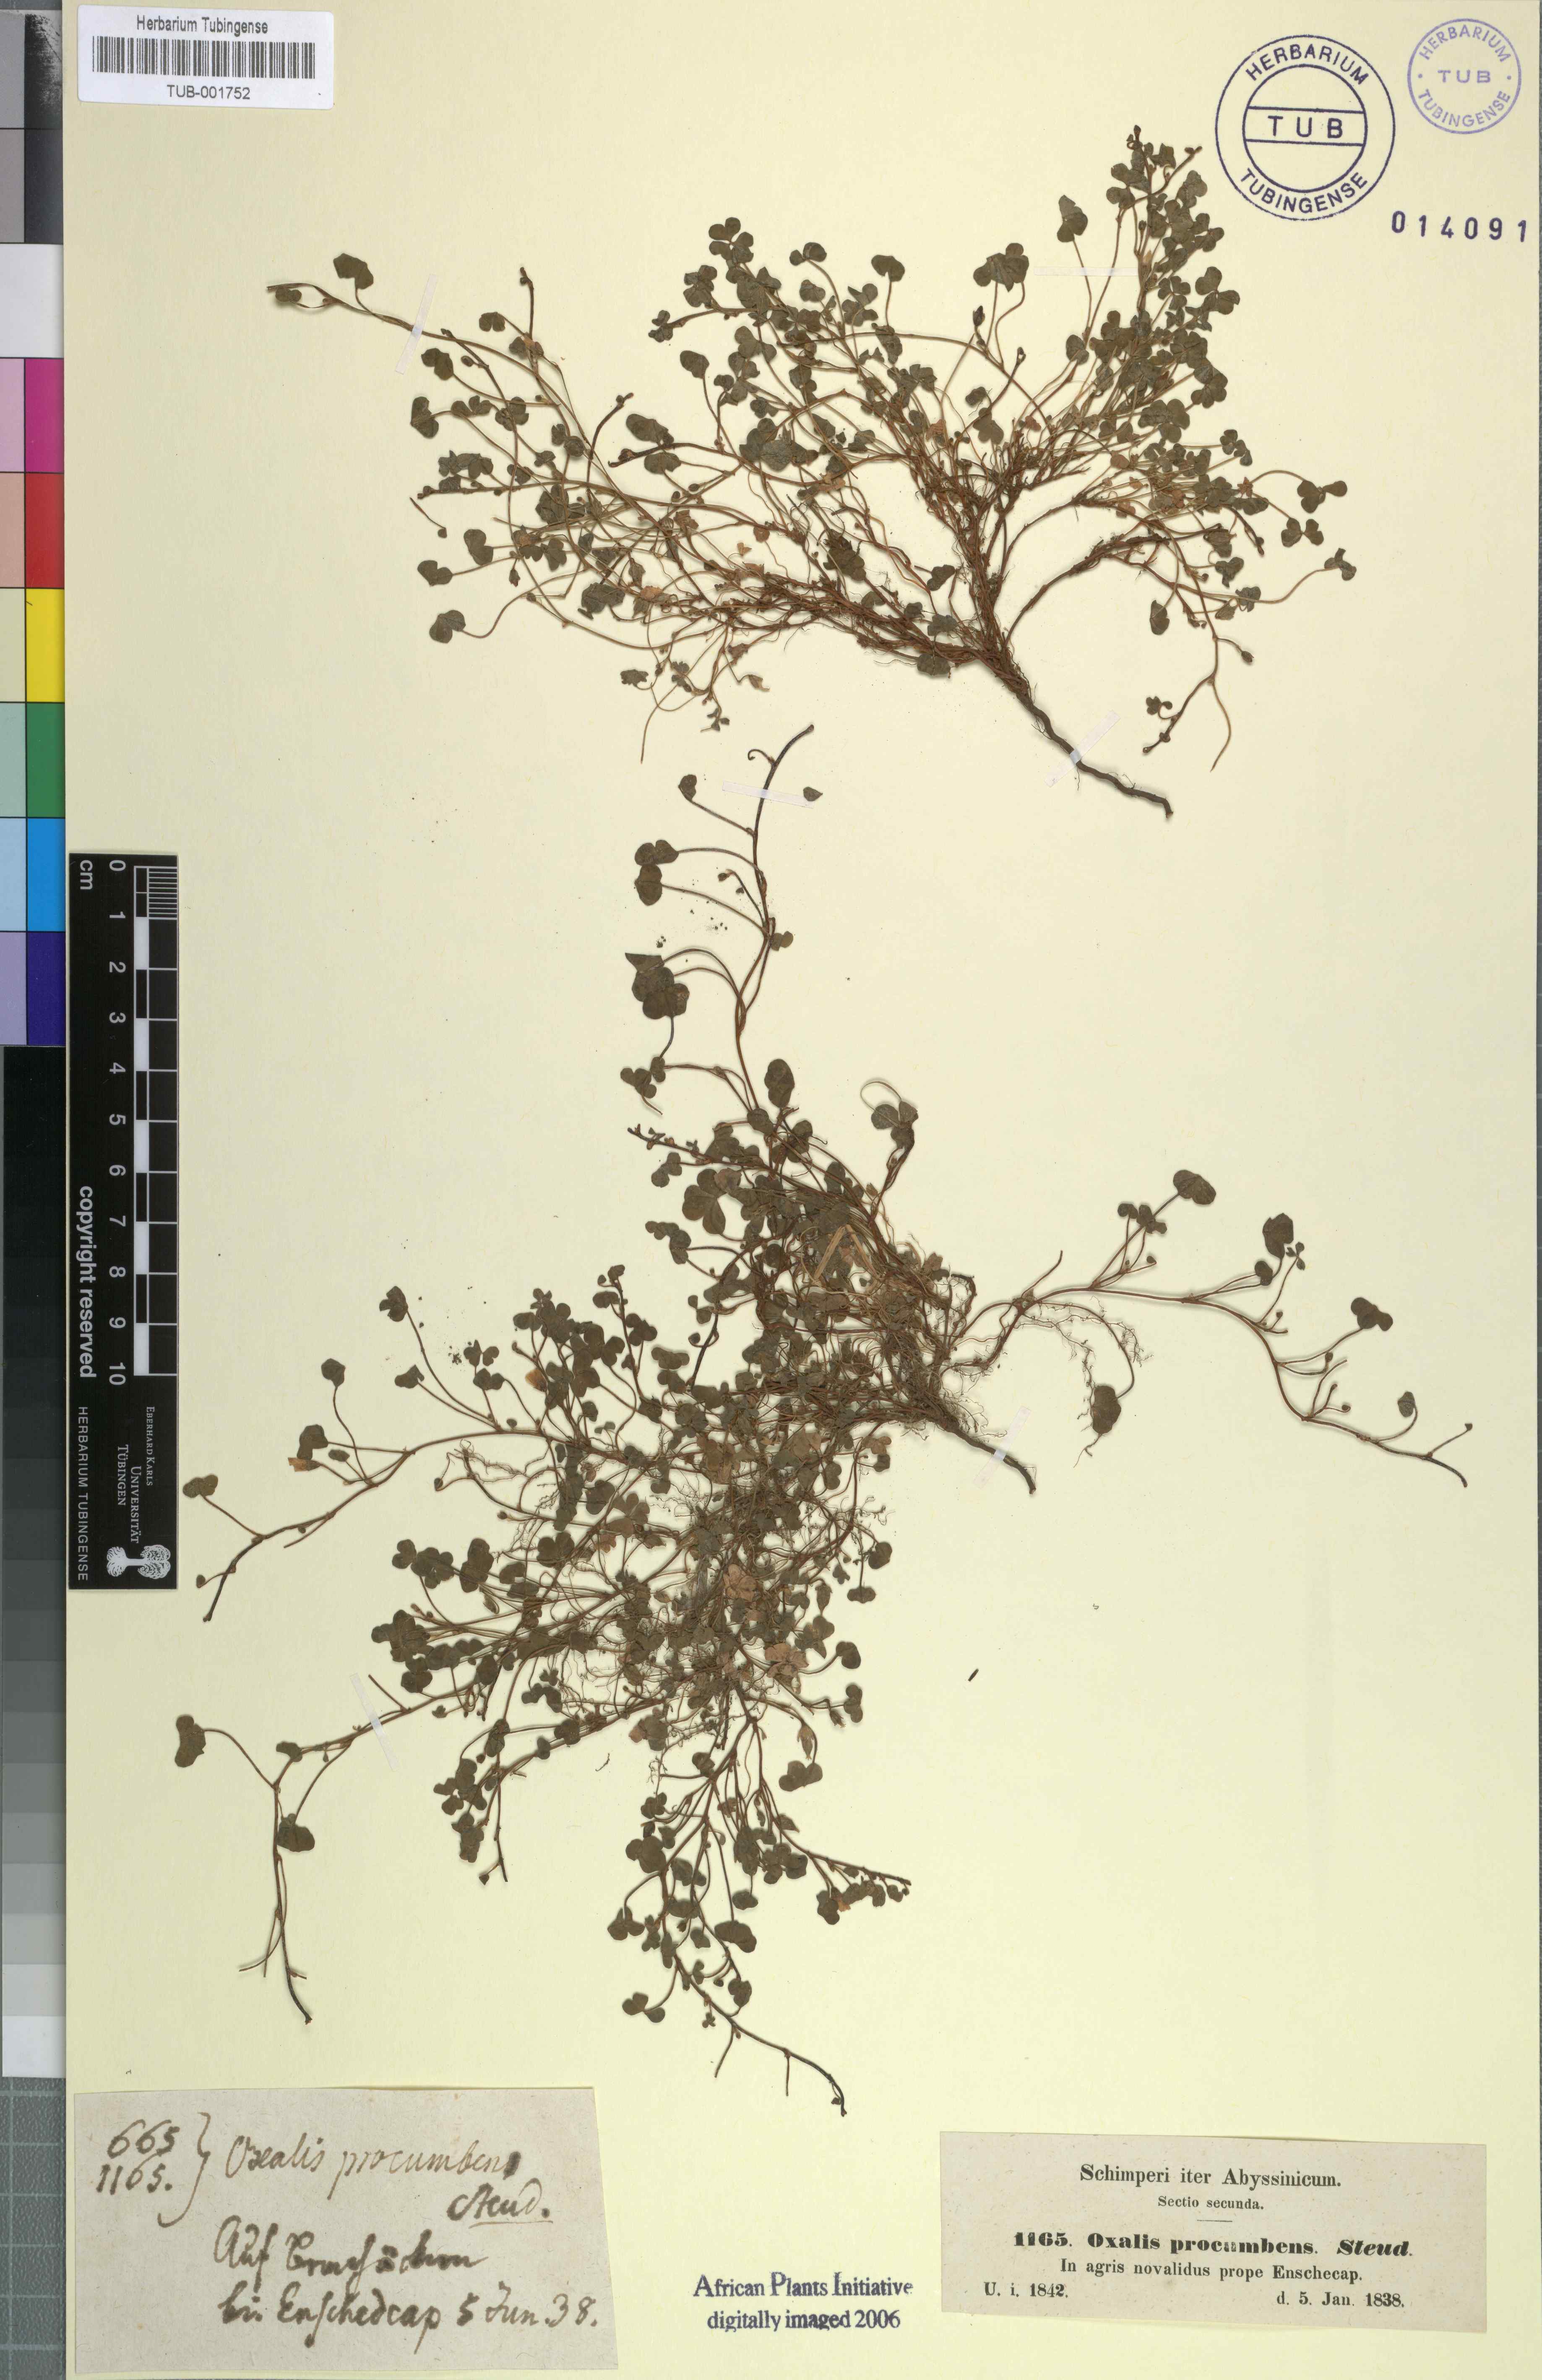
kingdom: Plantae
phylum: Tracheophyta
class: Magnoliopsida
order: Oxalidales
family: Oxalidaceae
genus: Oxalis
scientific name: Oxalis corniculata
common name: Procumbent yellow-sorrel
